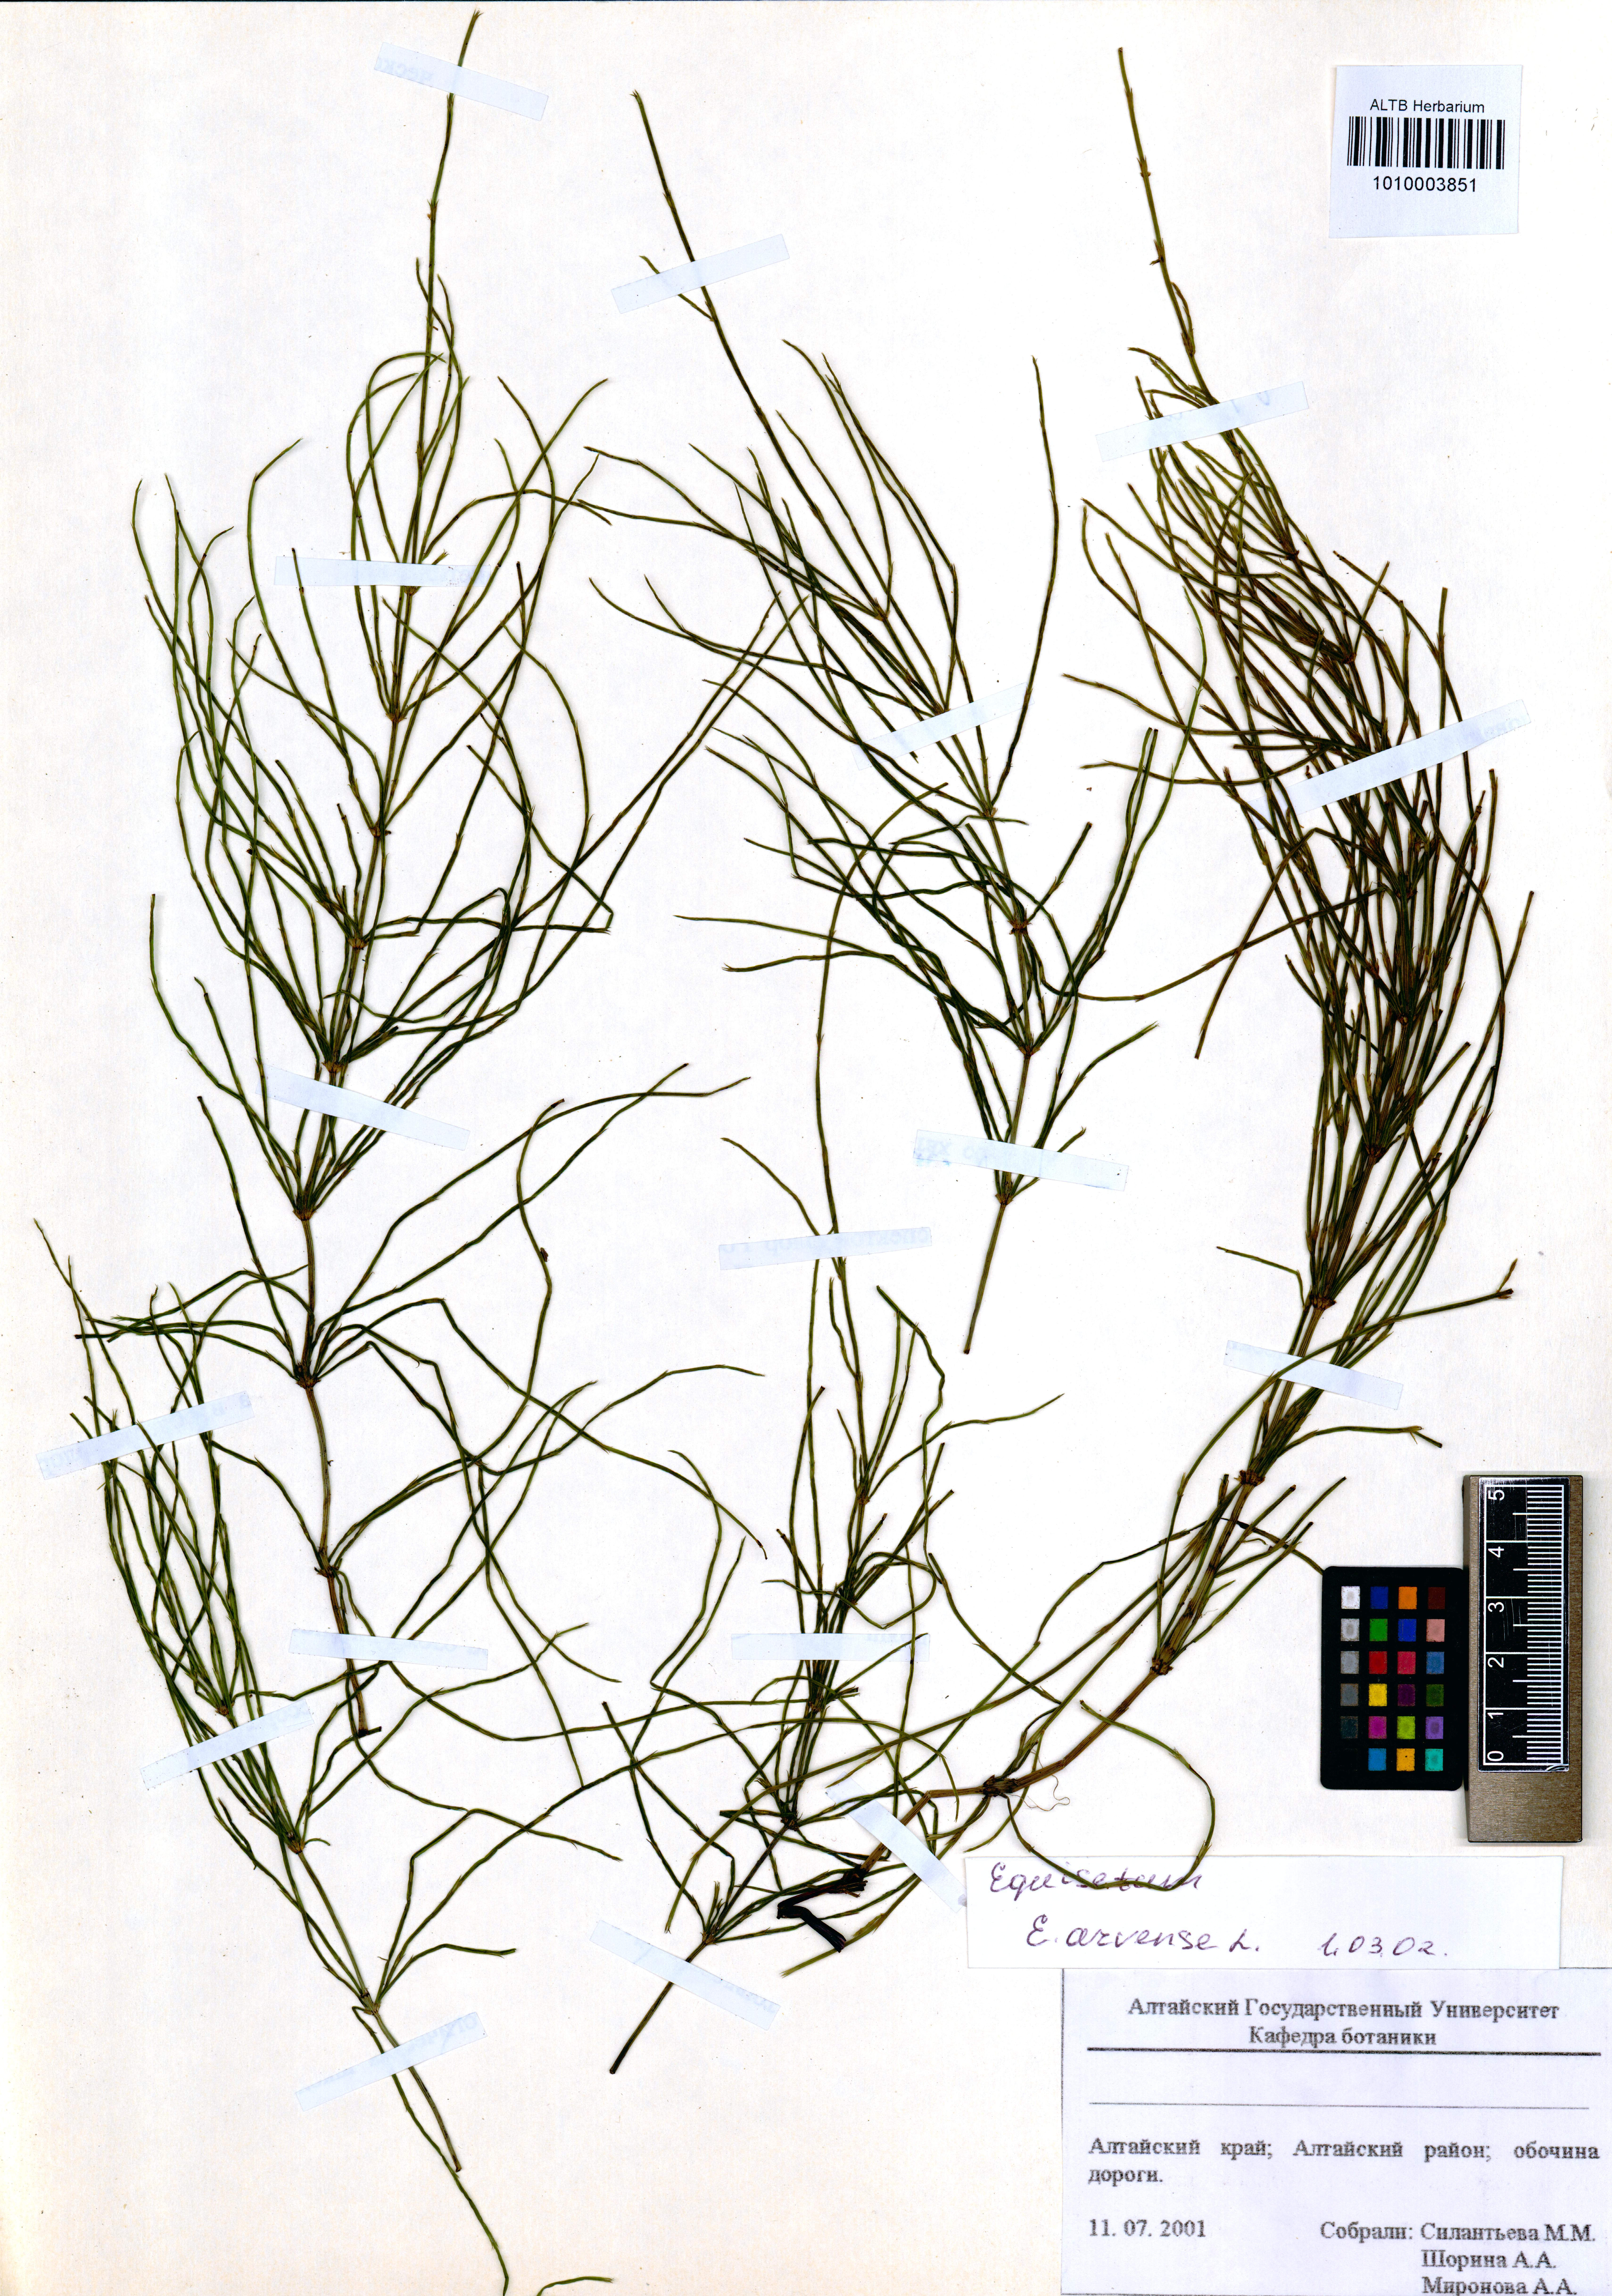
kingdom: Plantae
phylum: Tracheophyta
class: Polypodiopsida
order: Equisetales
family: Equisetaceae
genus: Equisetum
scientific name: Equisetum arvense
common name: Field horsetail
